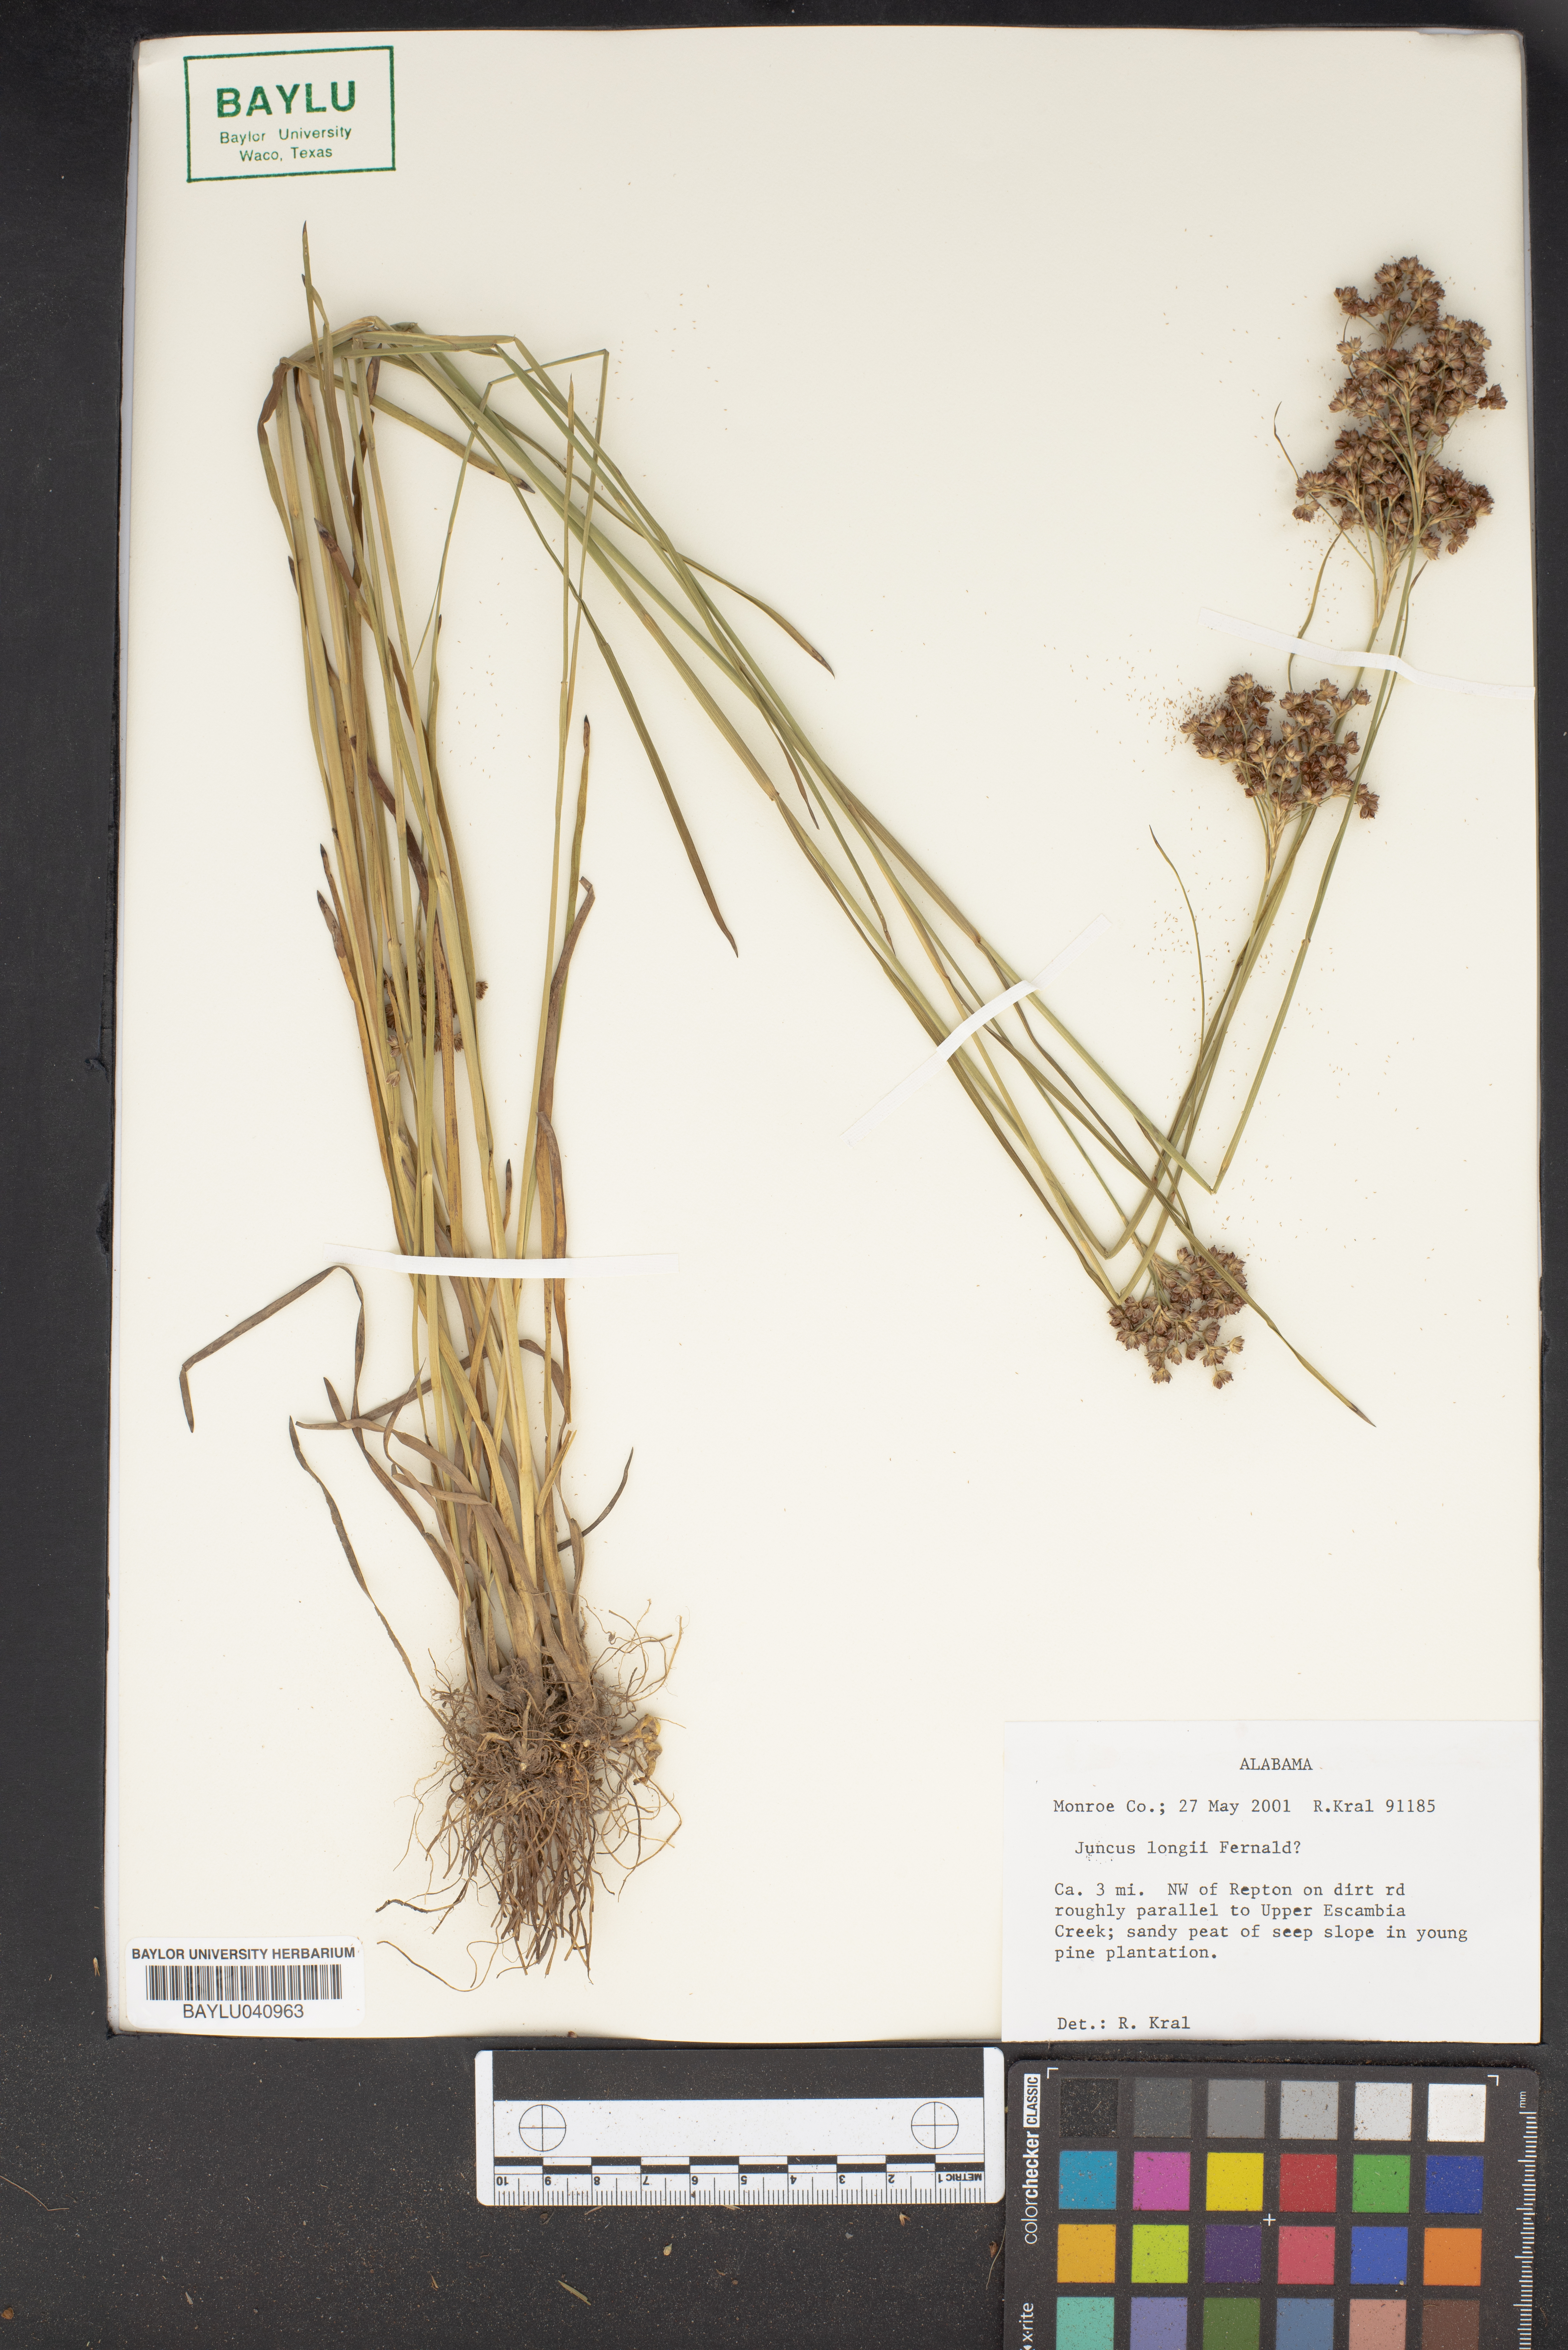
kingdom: Plantae
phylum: Tracheophyta
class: Liliopsida
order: Poales
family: Juncaceae
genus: Juncus
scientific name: Juncus longii
